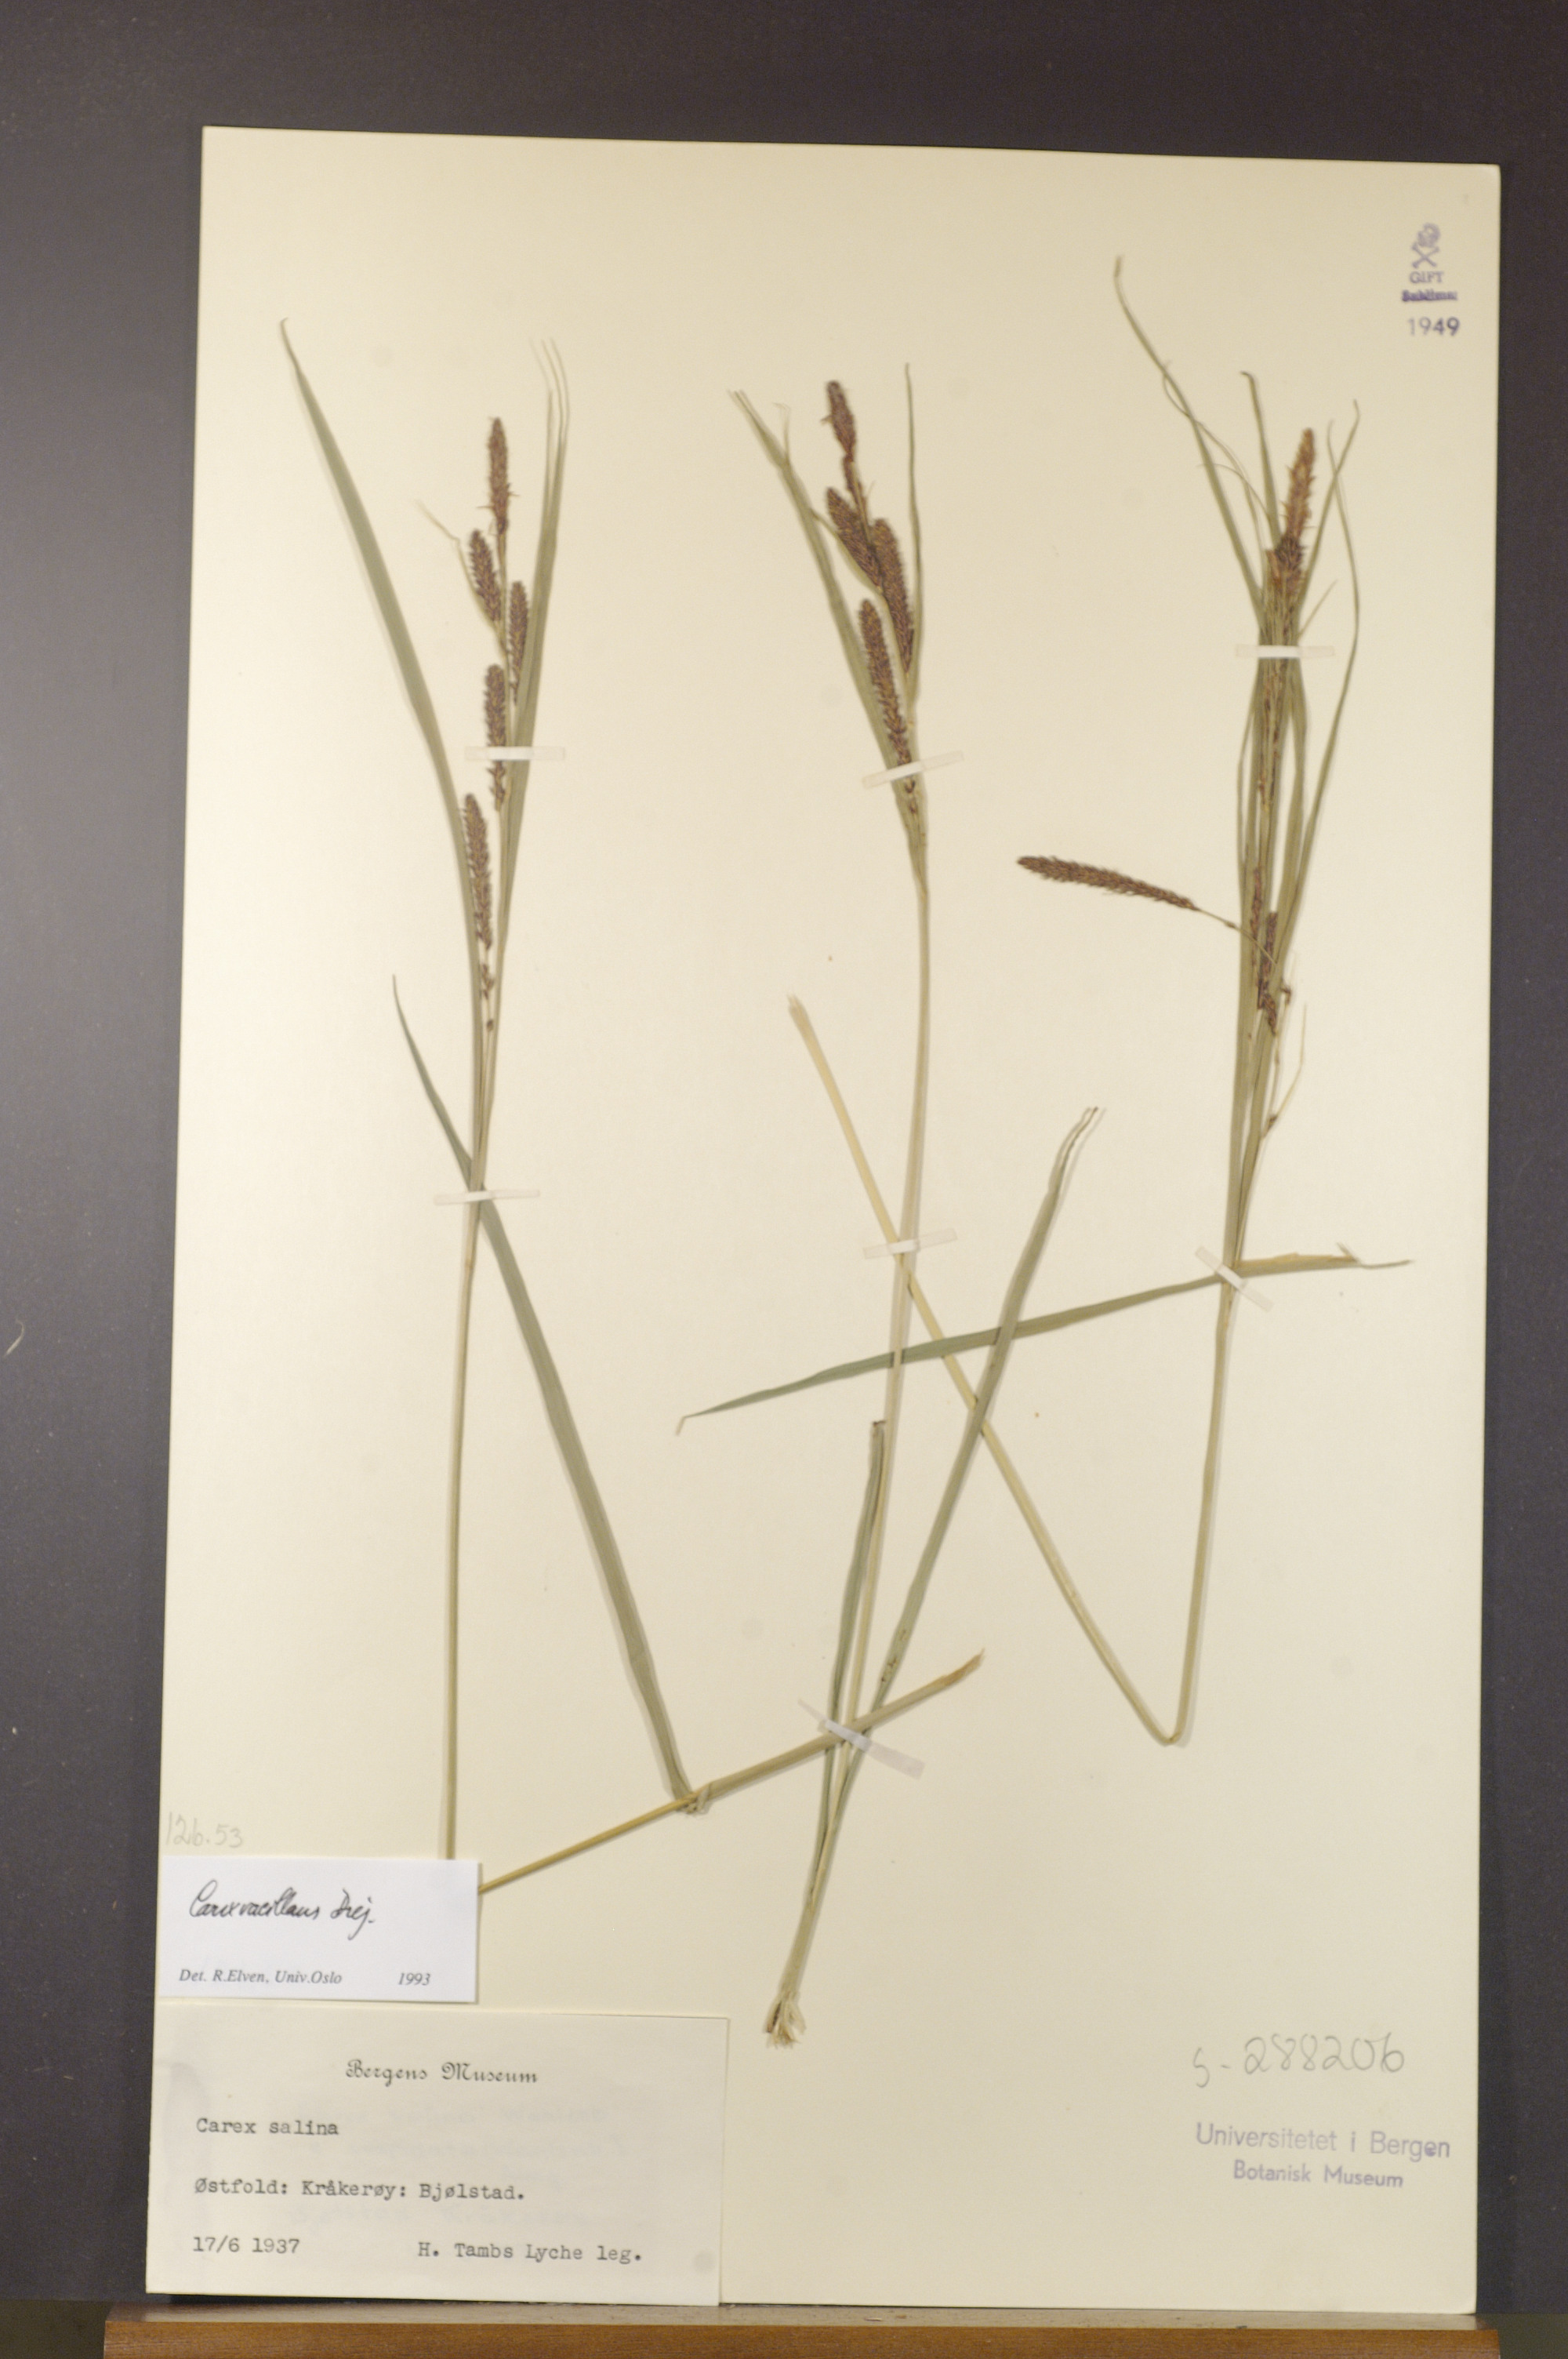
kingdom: Plantae
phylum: Tracheophyta
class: Liliopsida
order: Poales
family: Cyperaceae
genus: Carex
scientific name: Carex vacillans
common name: Sedge
